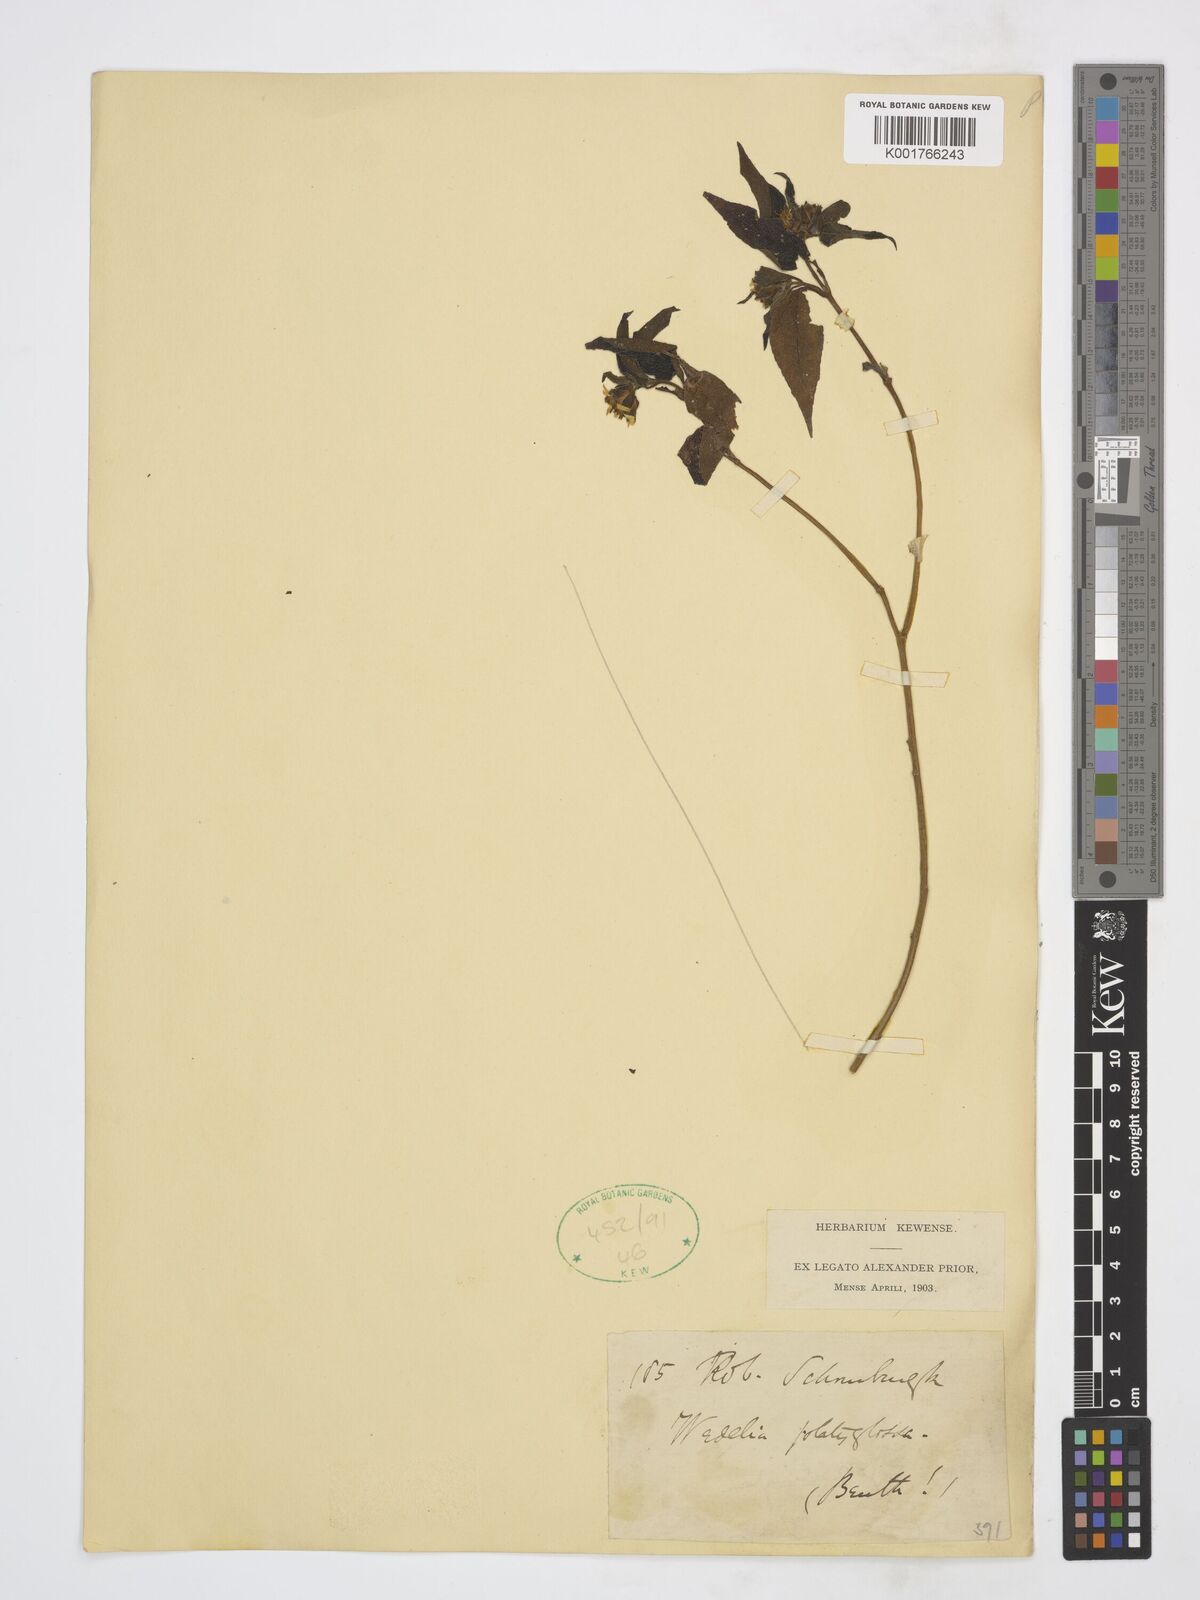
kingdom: Plantae
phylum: Tracheophyta
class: Magnoliopsida
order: Asterales
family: Asteraceae
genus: Wedelia
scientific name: Wedelia
